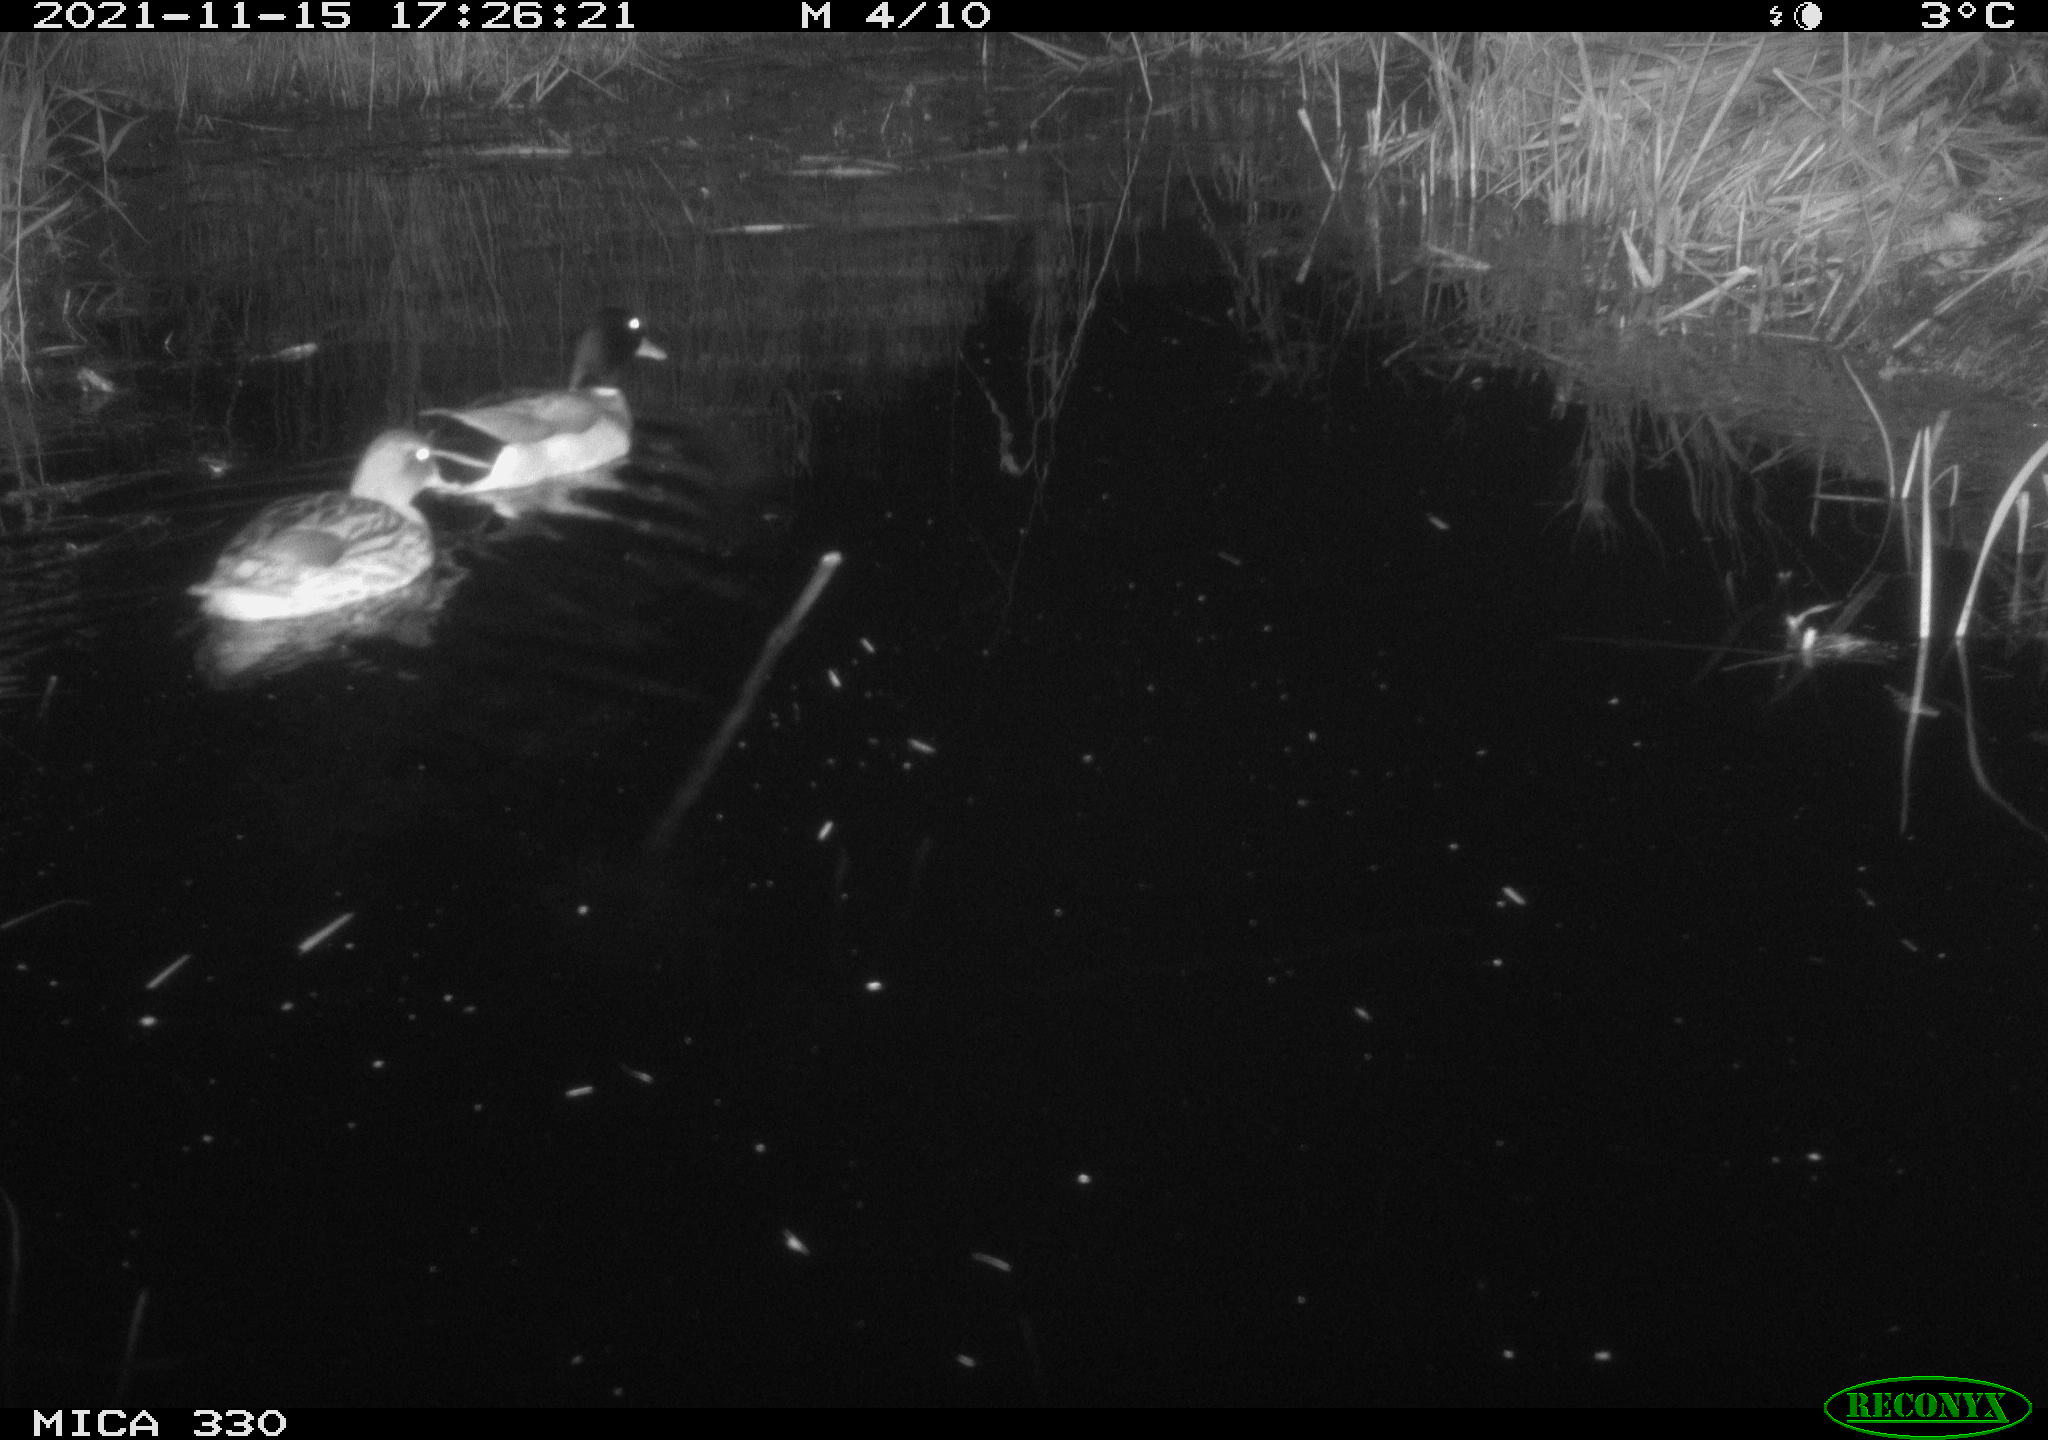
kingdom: Animalia
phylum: Chordata
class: Aves
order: Anseriformes
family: Anatidae
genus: Anas
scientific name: Anas platyrhynchos
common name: Mallard
